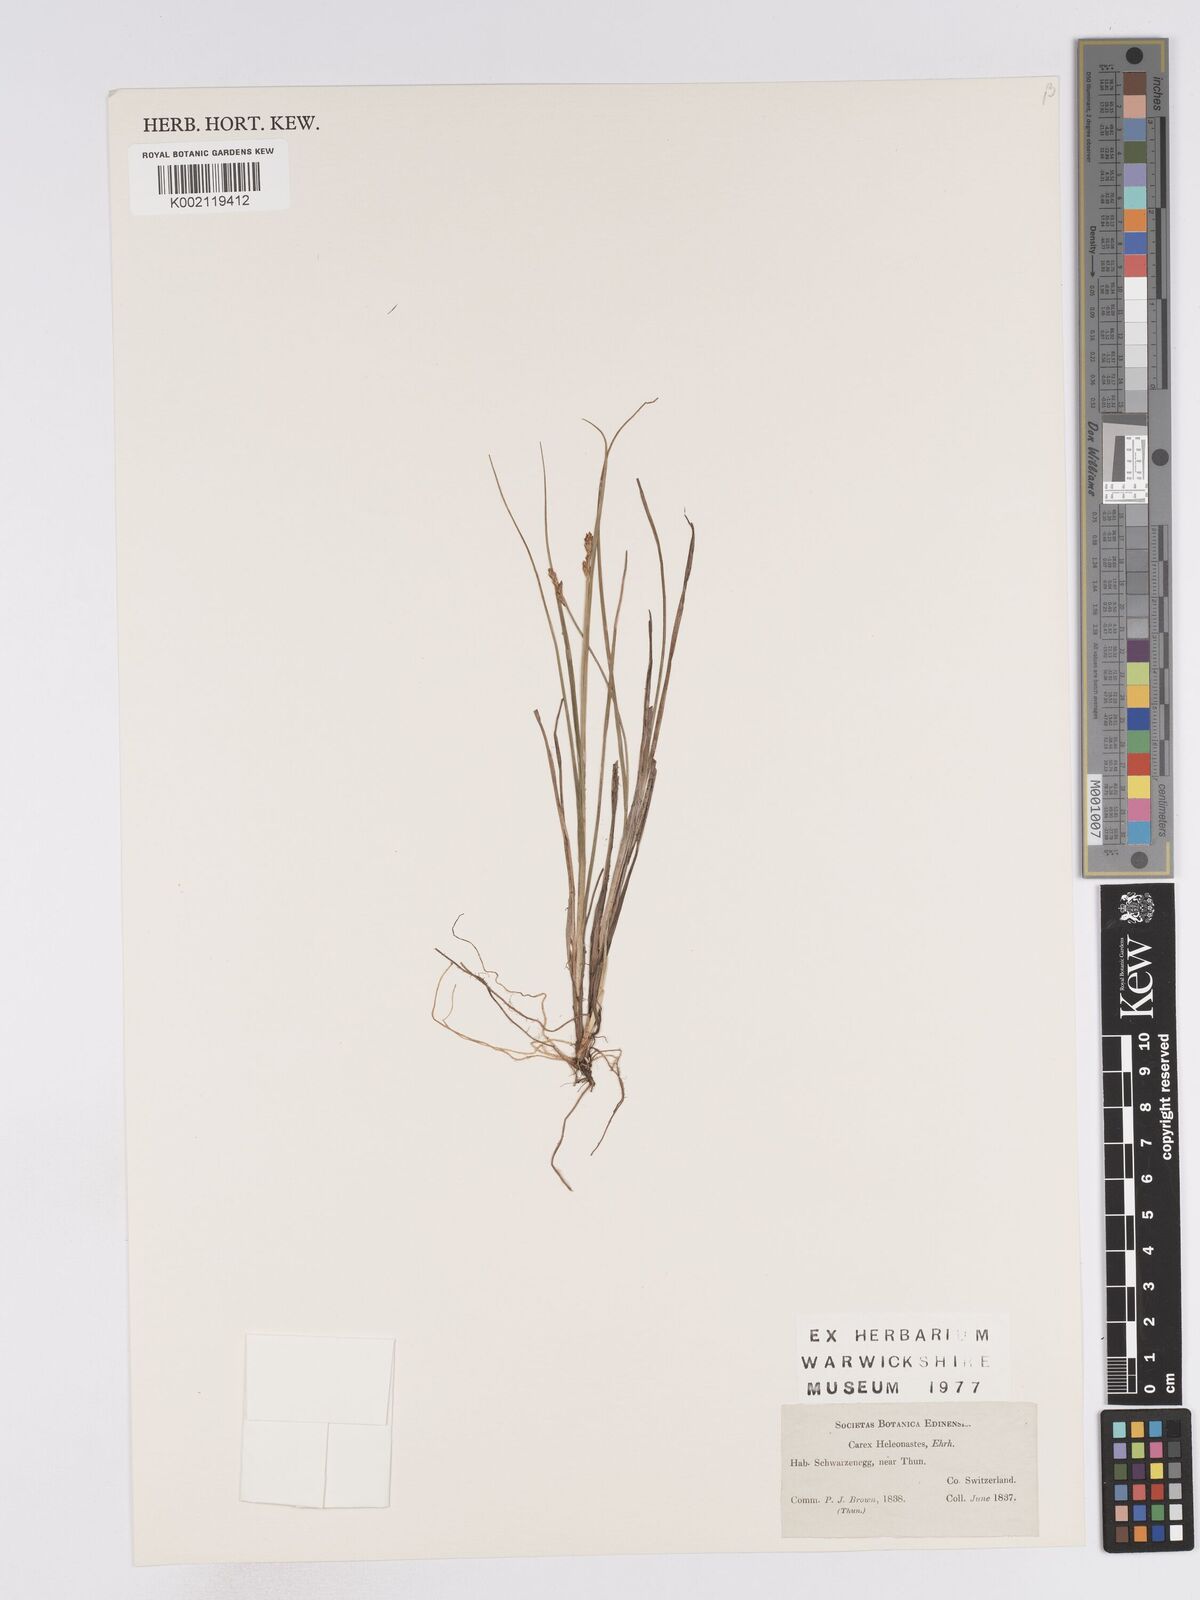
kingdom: Plantae
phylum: Tracheophyta
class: Liliopsida
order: Poales
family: Cyperaceae
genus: Carex
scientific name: Carex heleonastes
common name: Hudson bay sedge
